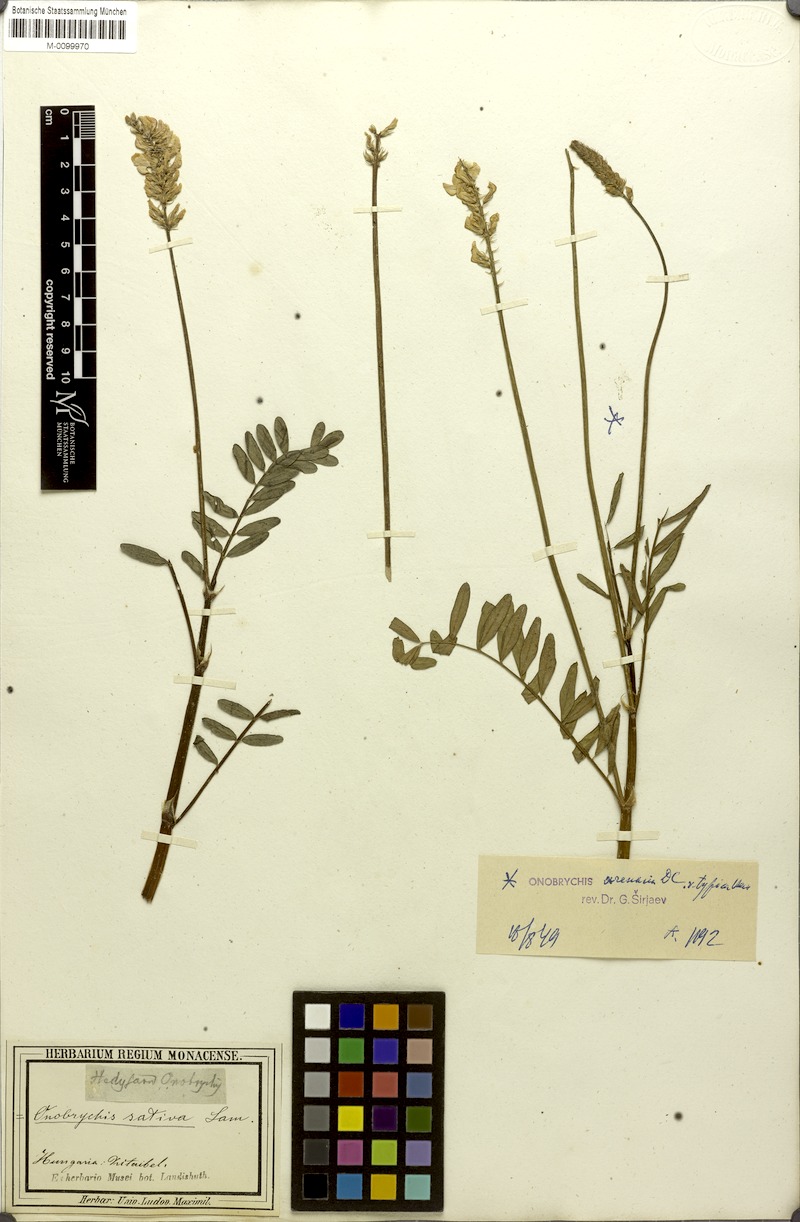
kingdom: Plantae
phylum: Tracheophyta
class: Magnoliopsida
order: Fabales
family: Fabaceae
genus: Onobrychis
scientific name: Onobrychis arenaria
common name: Sand esparcet
